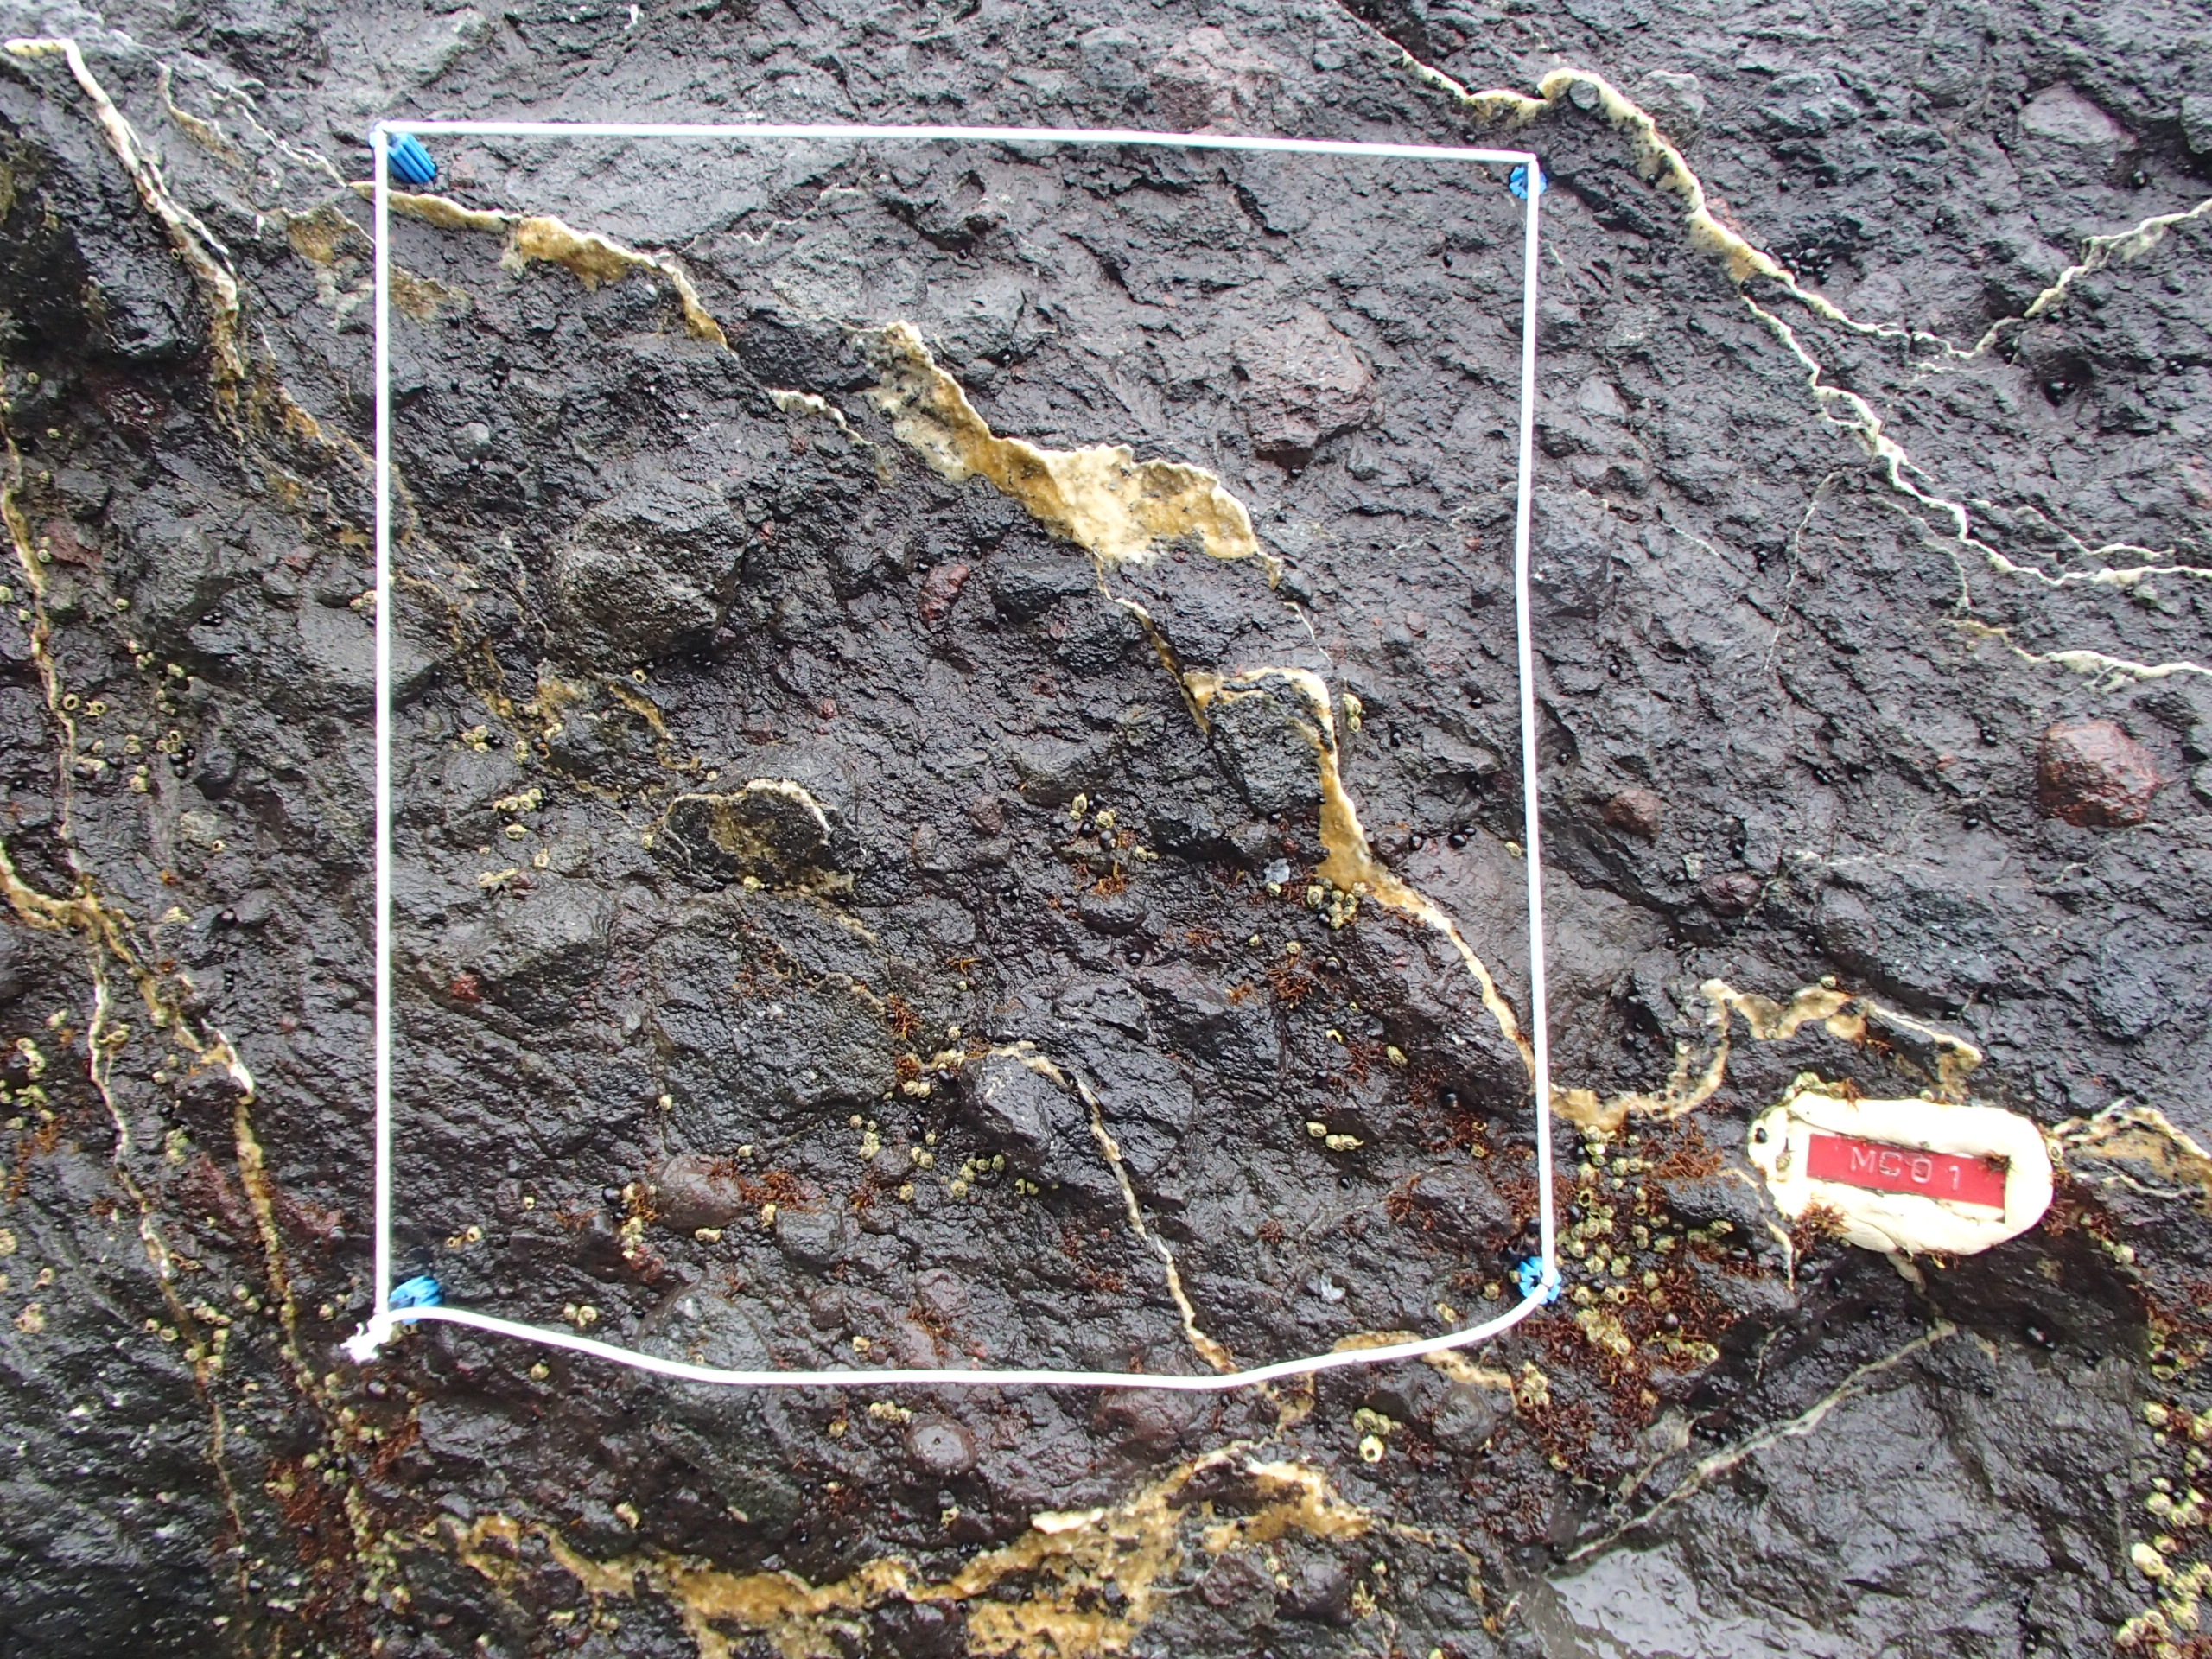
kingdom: Plantae
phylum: Rhodophyta
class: Florideophyceae
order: Gigartinales
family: Endocladiaceae
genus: Gloiopeltis
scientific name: Gloiopeltis furcata
